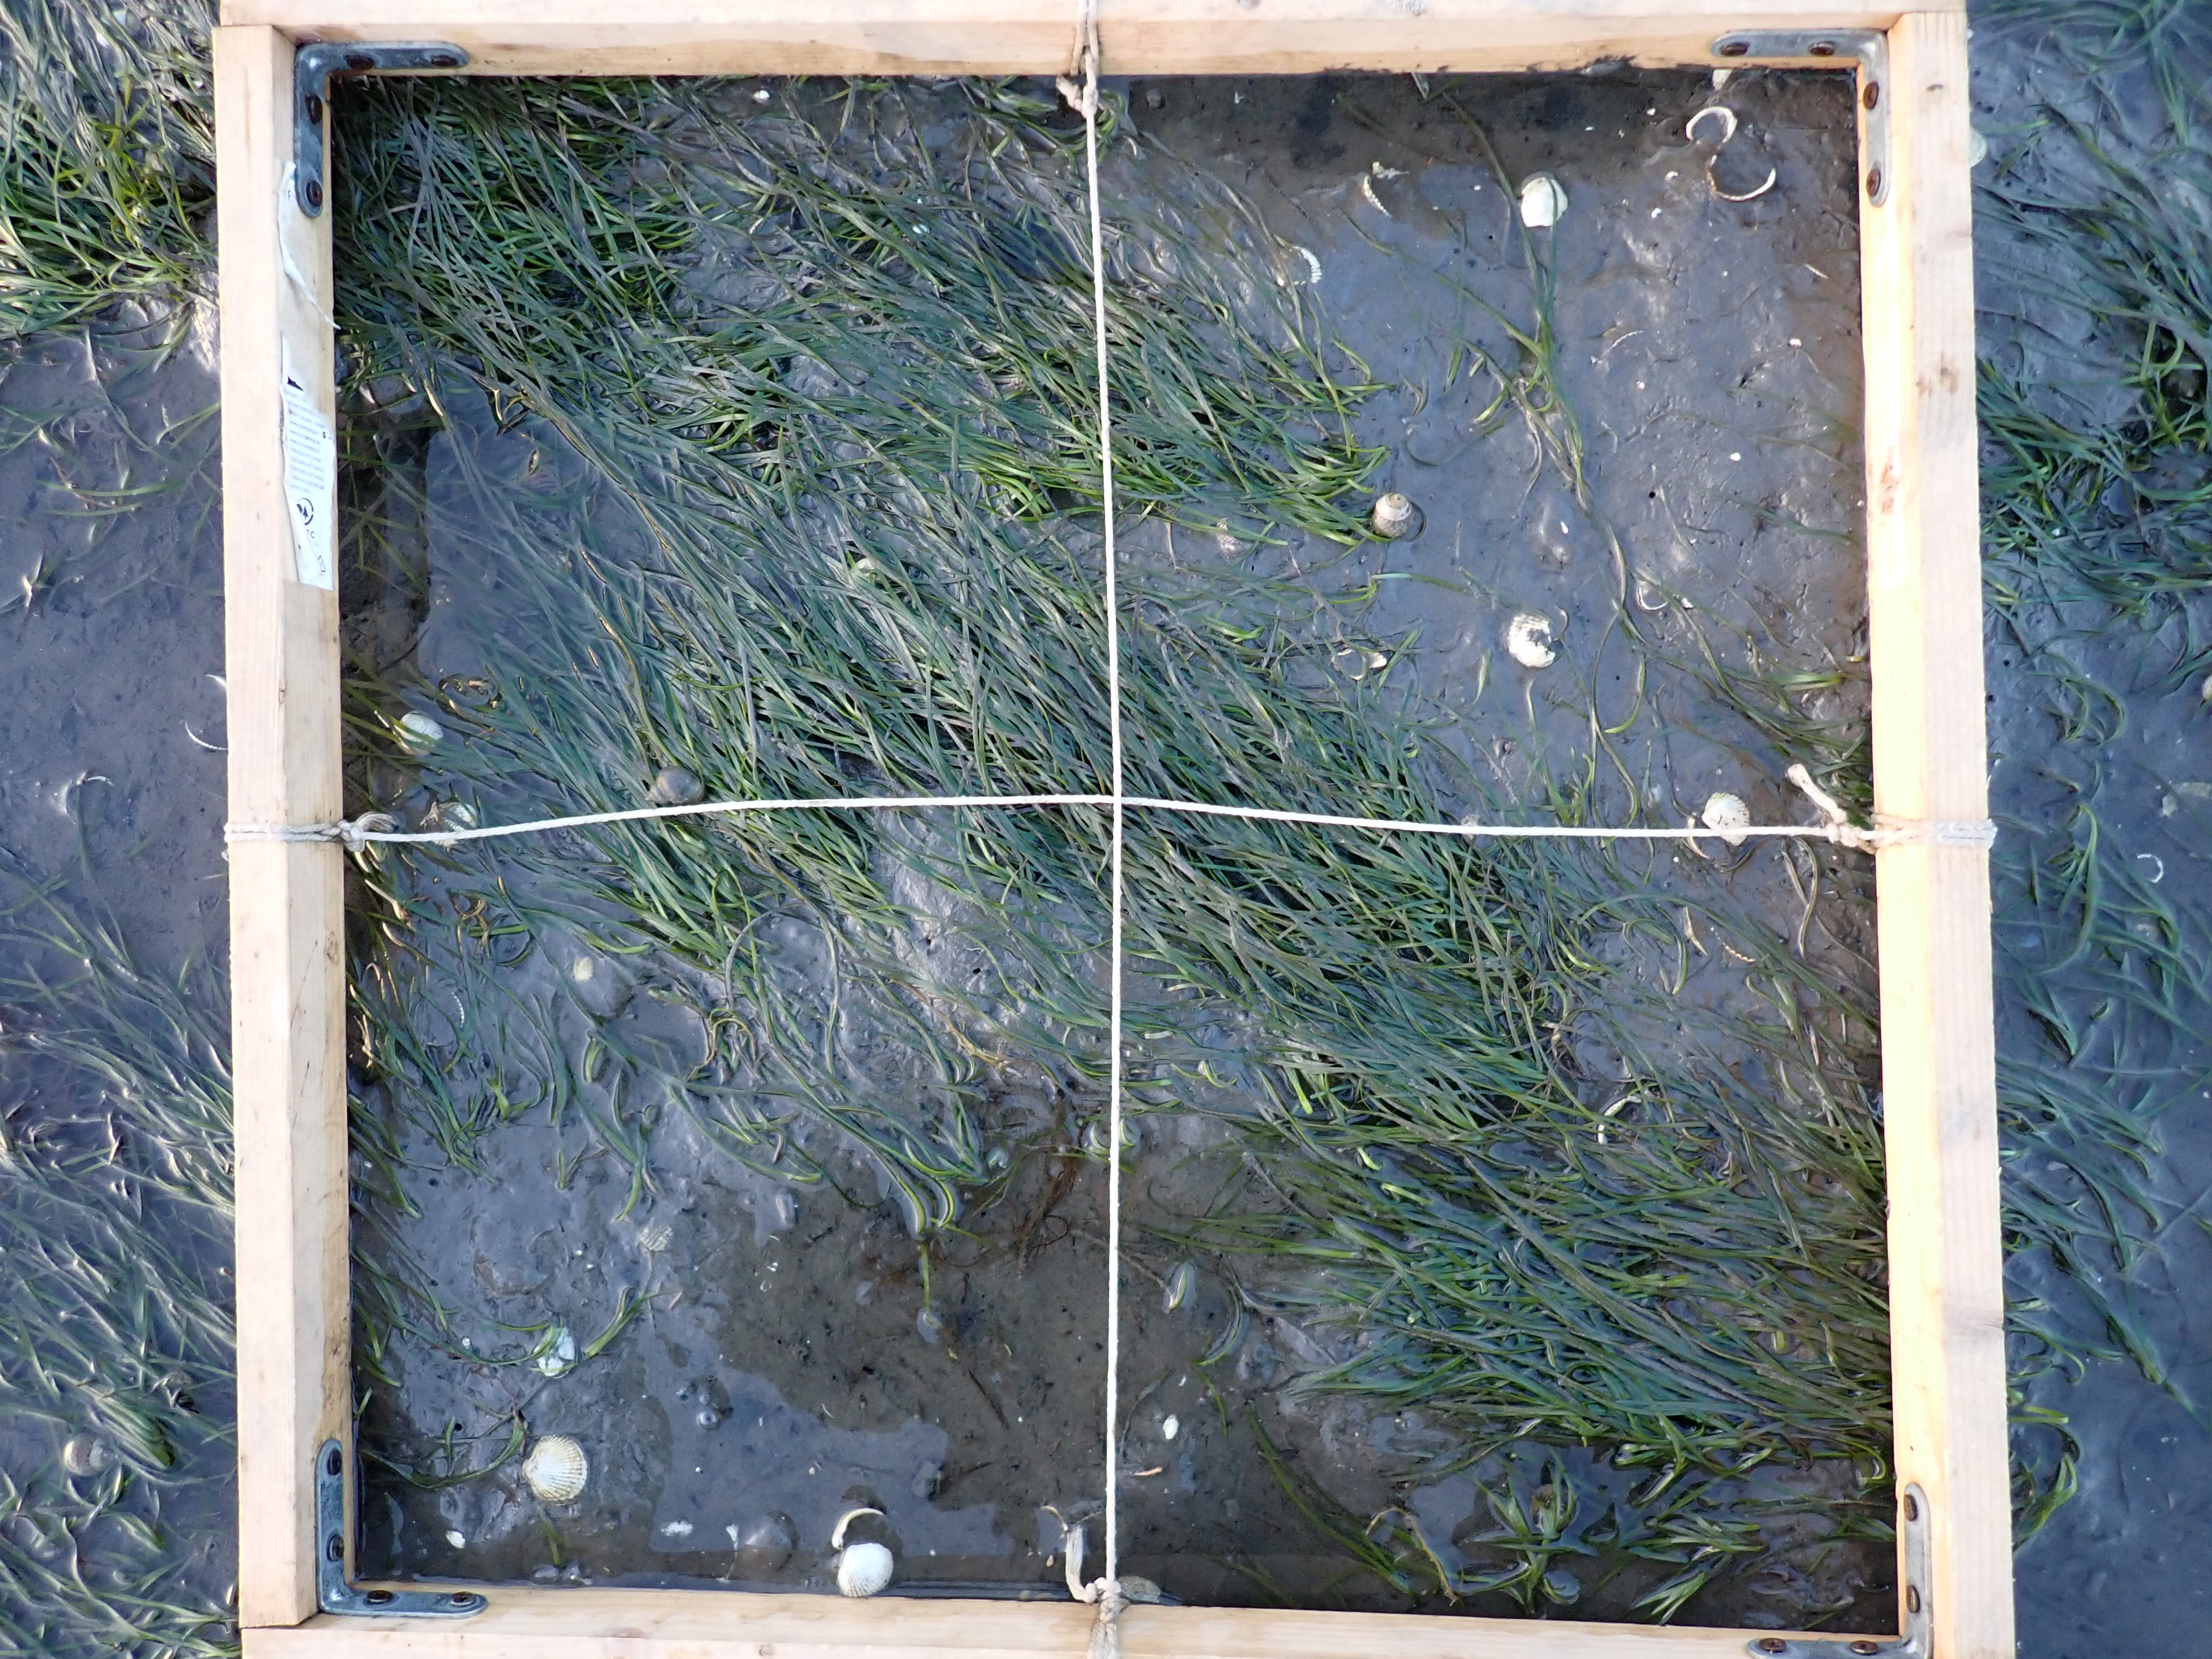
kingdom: Plantae
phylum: Tracheophyta
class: Liliopsida
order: Alismatales
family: Zosteraceae
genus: Zostera
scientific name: Zostera noltii
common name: Dwarf eelgrass
